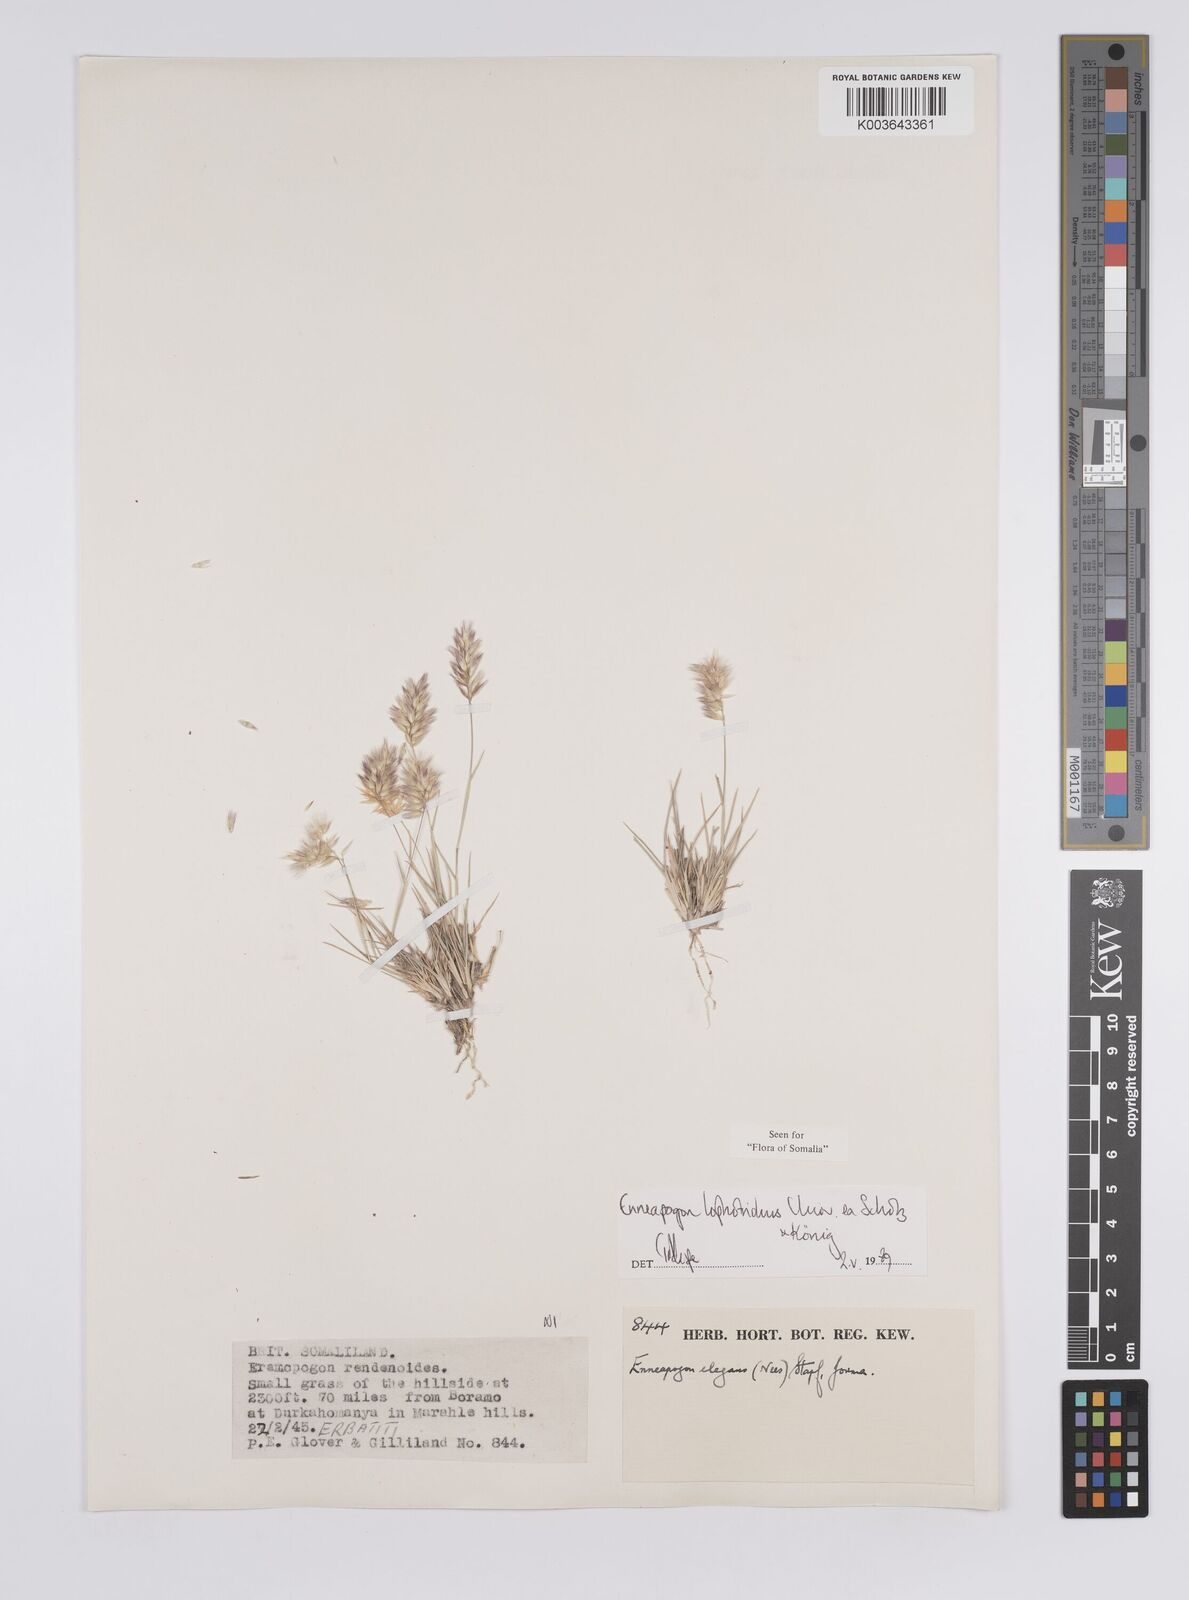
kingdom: Plantae
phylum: Tracheophyta
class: Liliopsida
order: Poales
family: Poaceae
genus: Enneapogon
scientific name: Enneapogon lophotrichus
